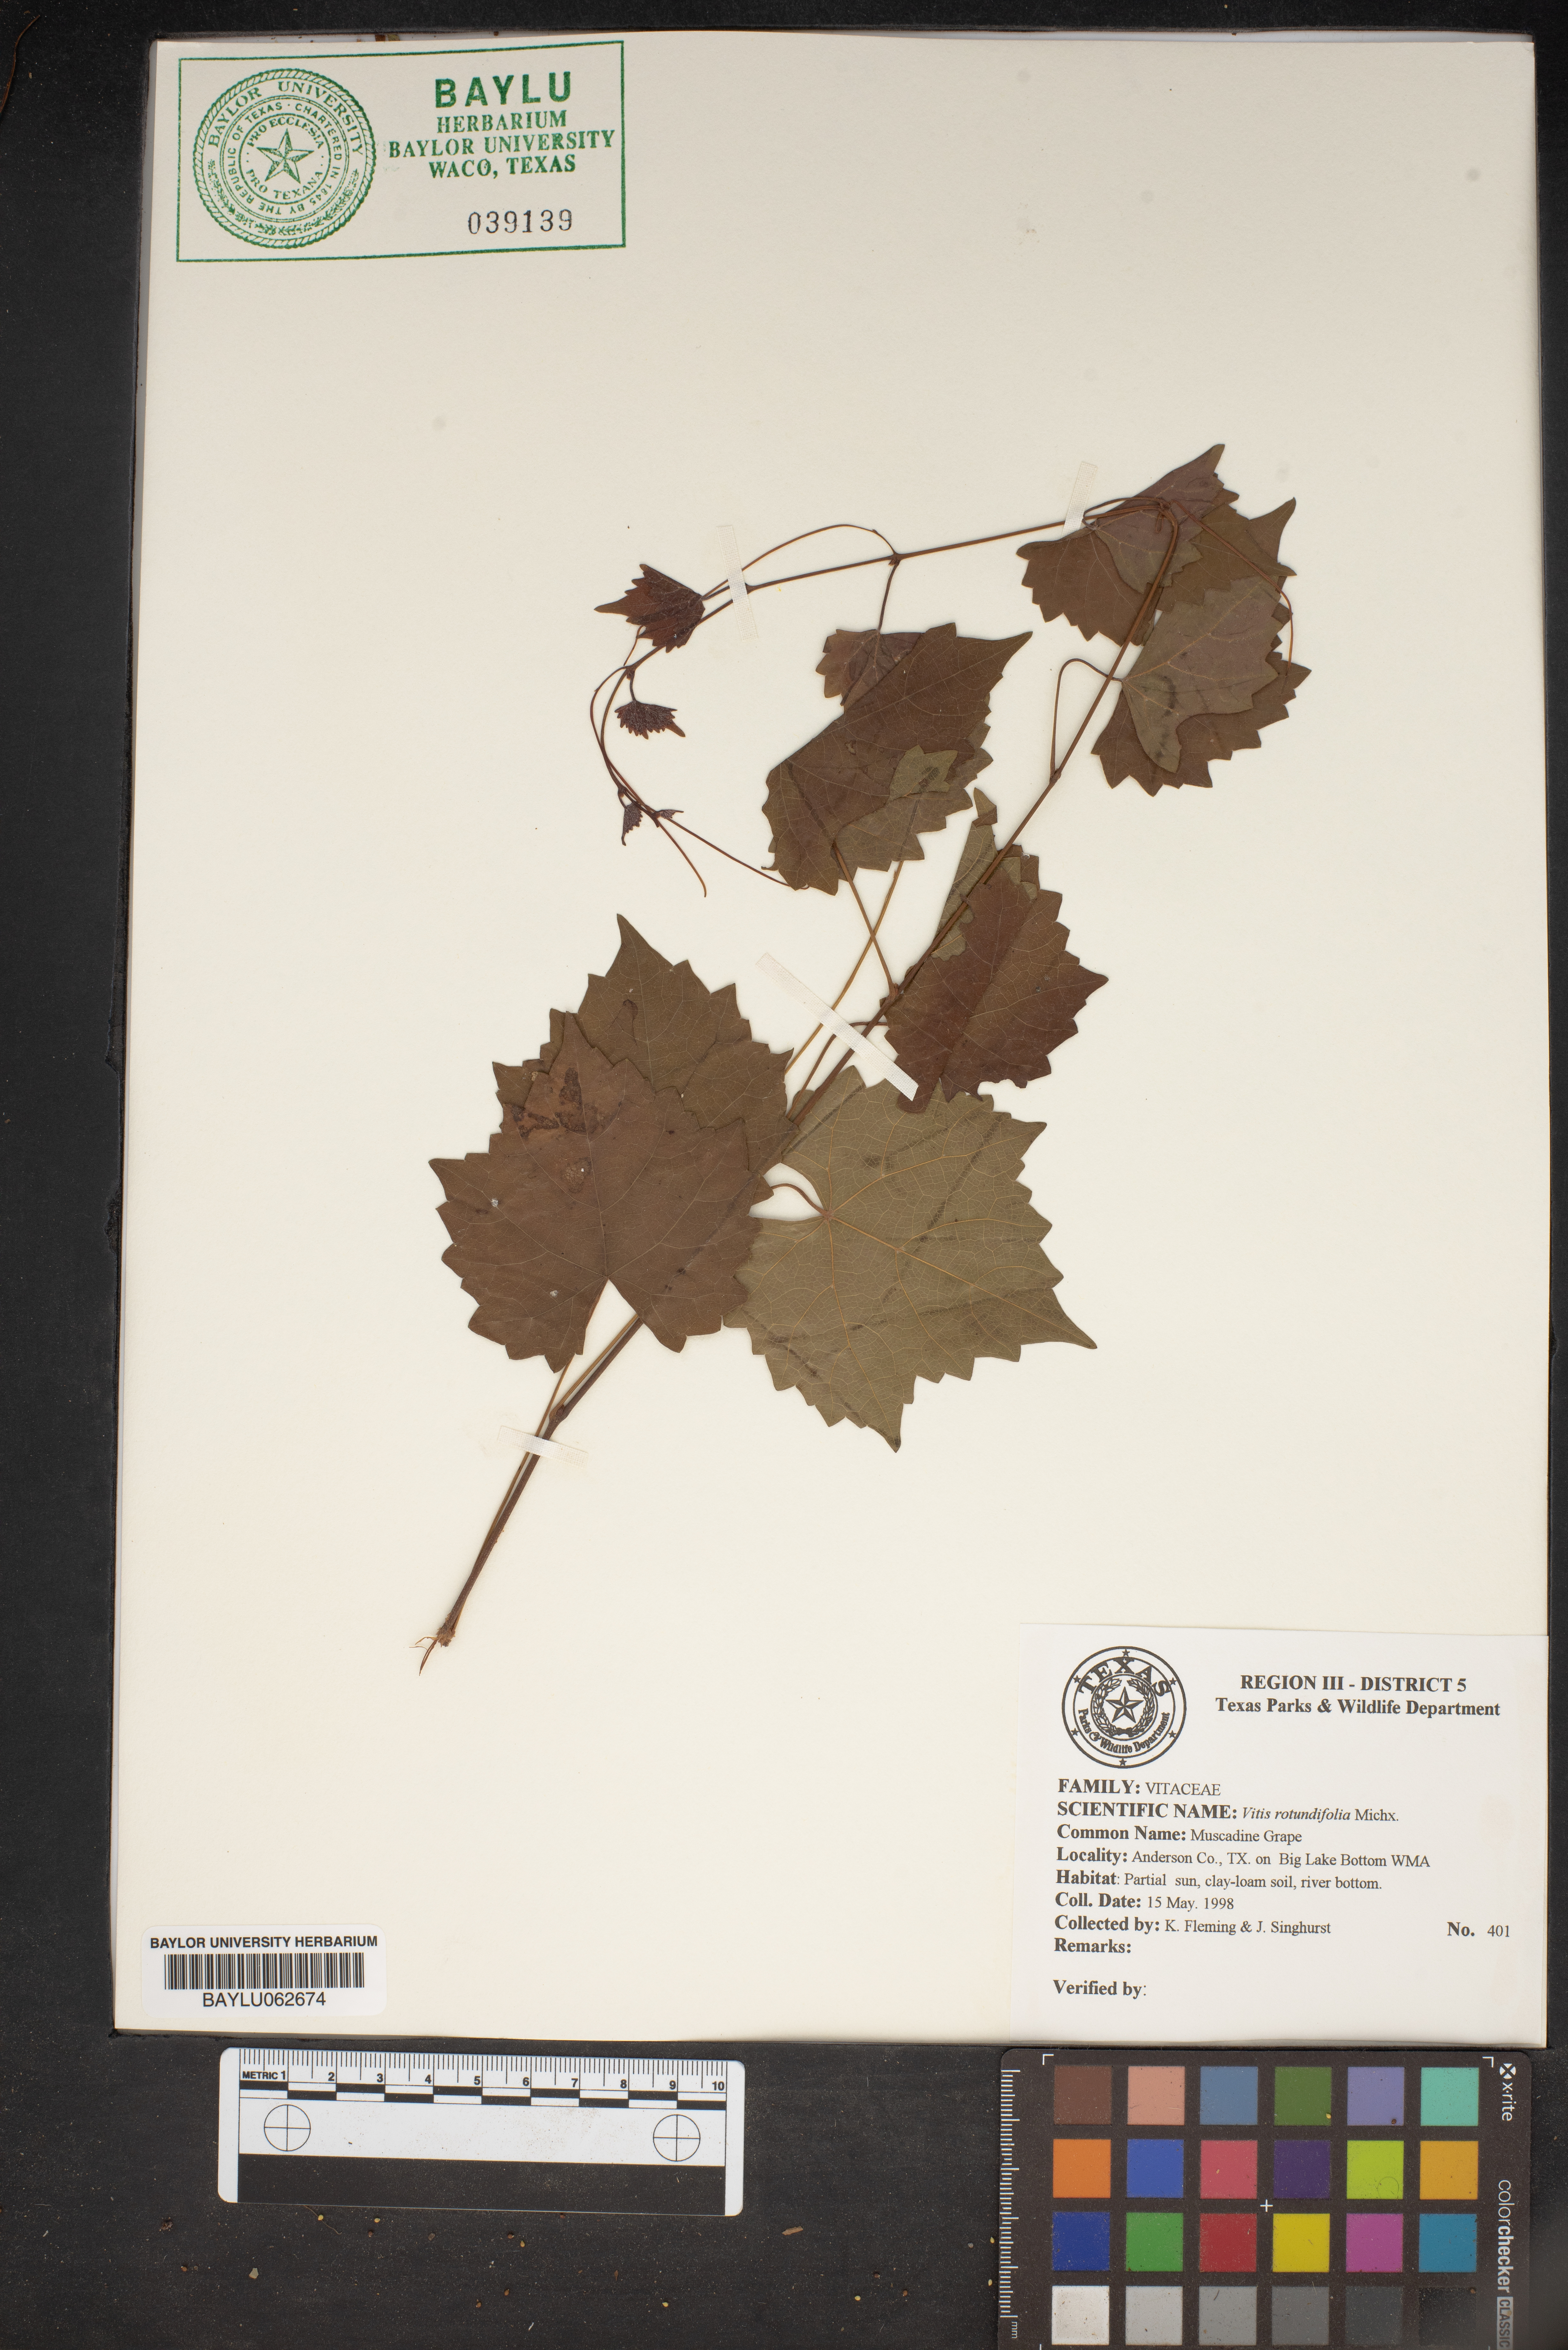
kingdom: Plantae
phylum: Tracheophyta
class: Magnoliopsida
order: Vitales
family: Vitaceae
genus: Vitis
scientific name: Vitis rotundifolia
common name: Muscadine grape
